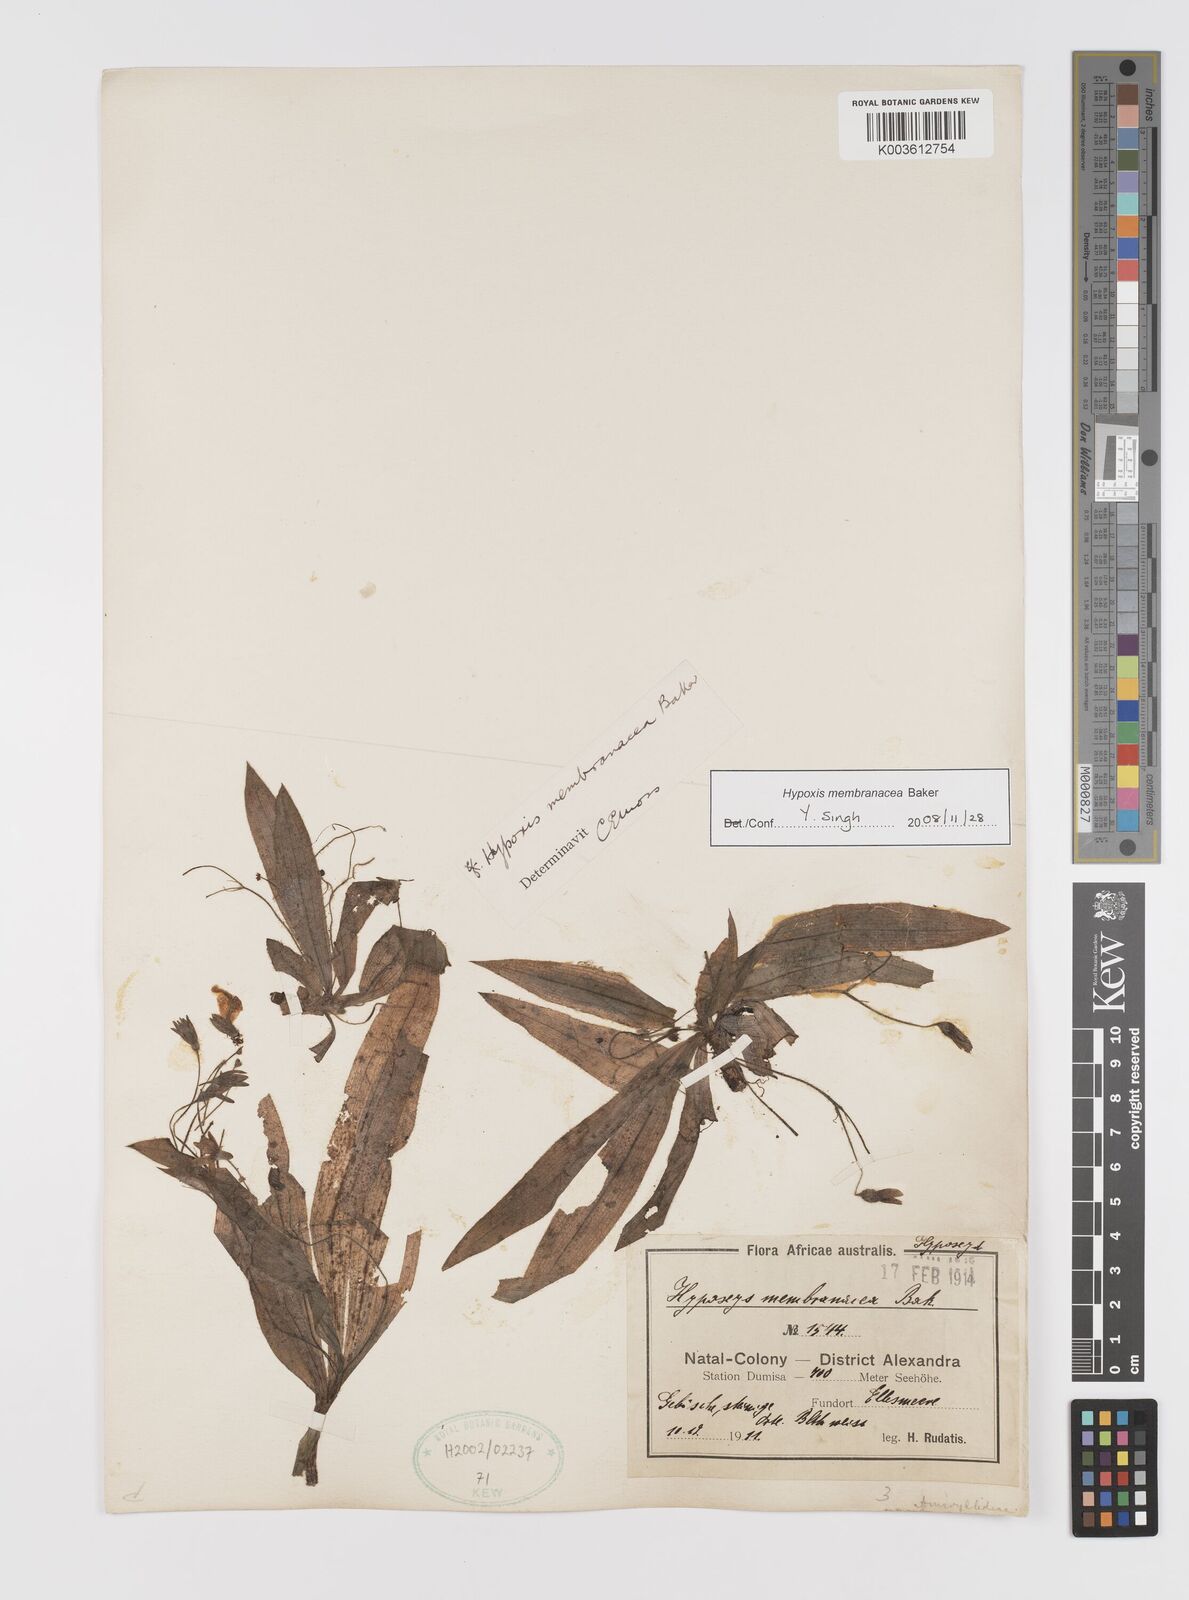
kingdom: Plantae
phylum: Tracheophyta
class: Liliopsida
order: Asparagales
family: Hypoxidaceae
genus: Hypoxis
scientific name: Hypoxis membranacea
